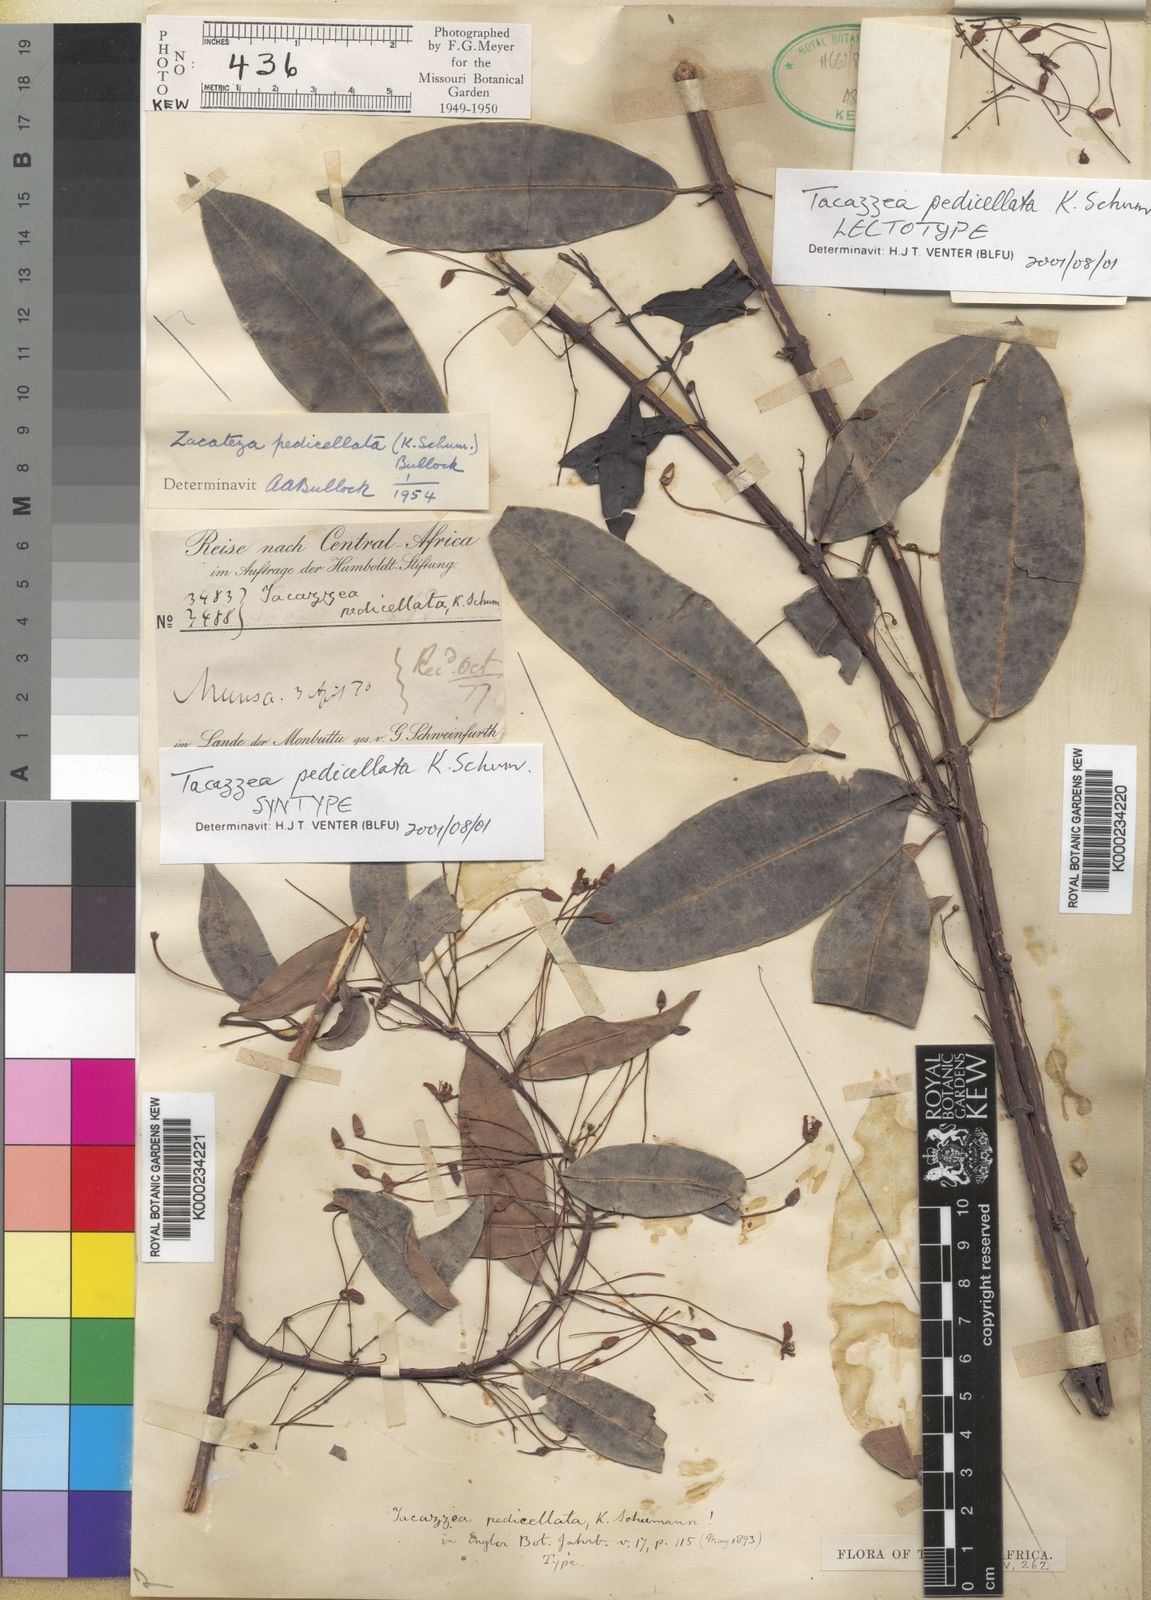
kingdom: Plantae
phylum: Tracheophyta
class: Magnoliopsida
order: Gentianales
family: Apocynaceae
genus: Zacateza
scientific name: Zacateza pedicellata
